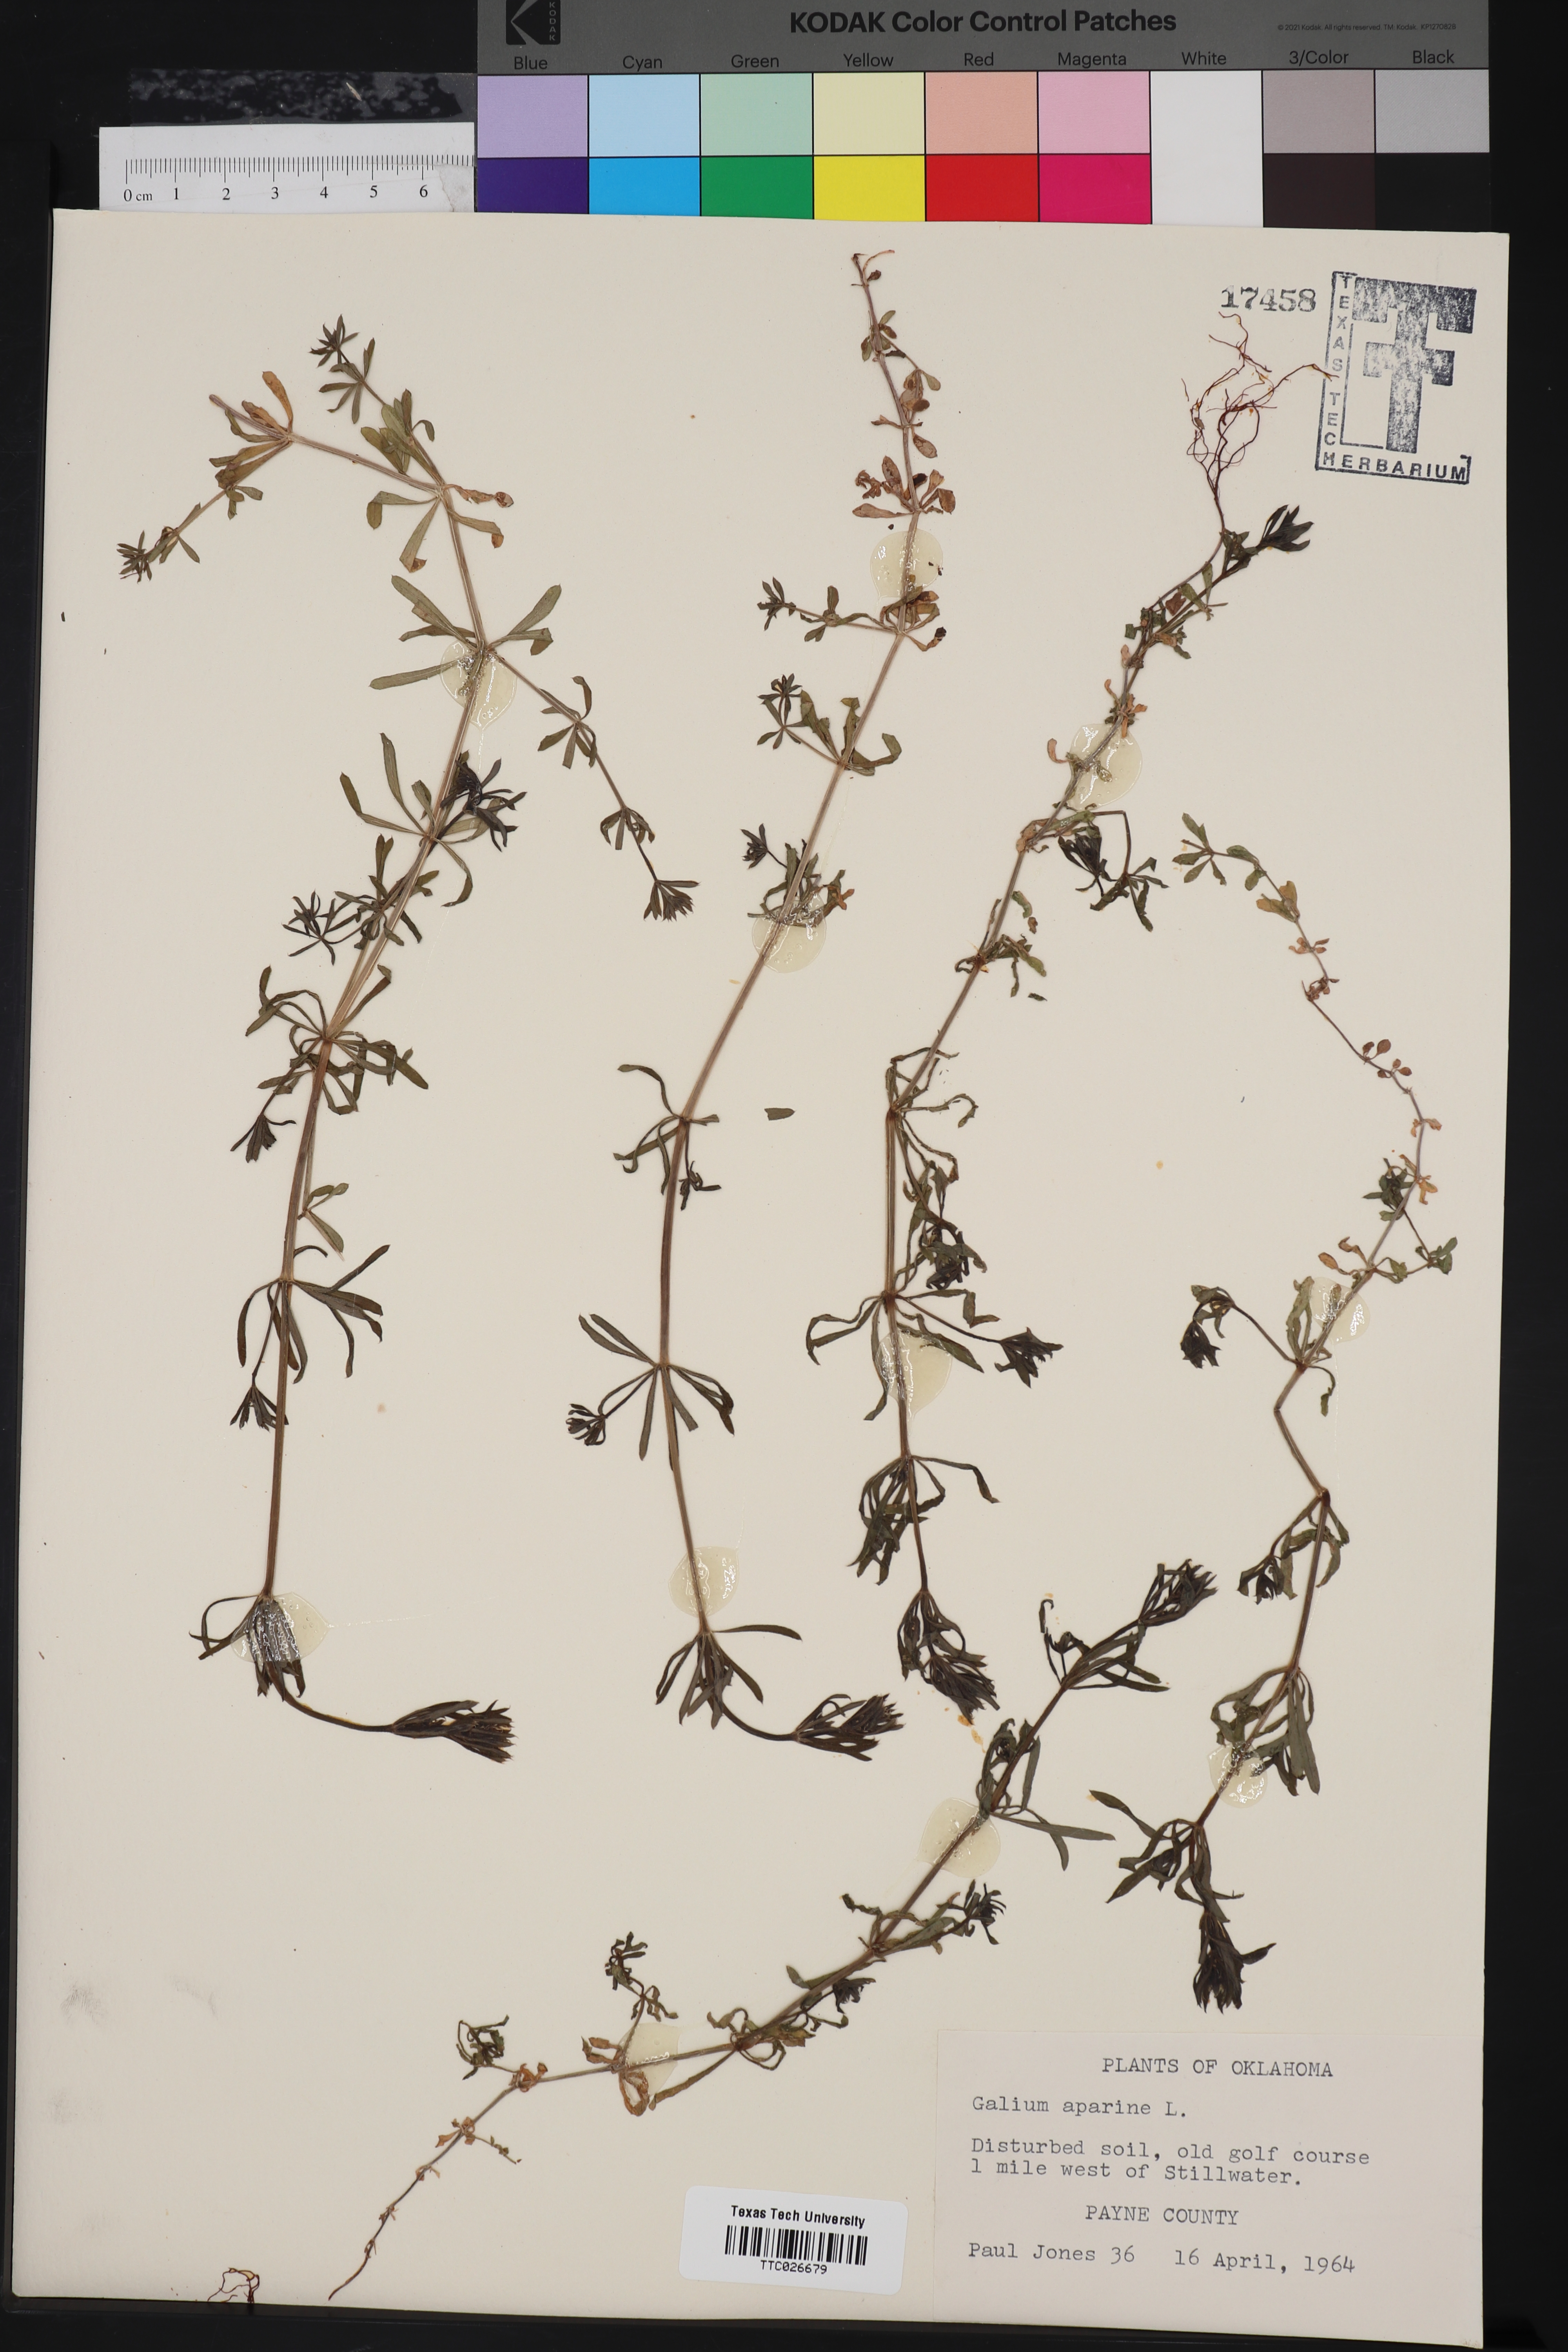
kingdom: Plantae
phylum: Tracheophyta
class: Magnoliopsida
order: Gentianales
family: Rubiaceae
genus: Galium
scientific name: Galium aparine
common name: Cleavers
